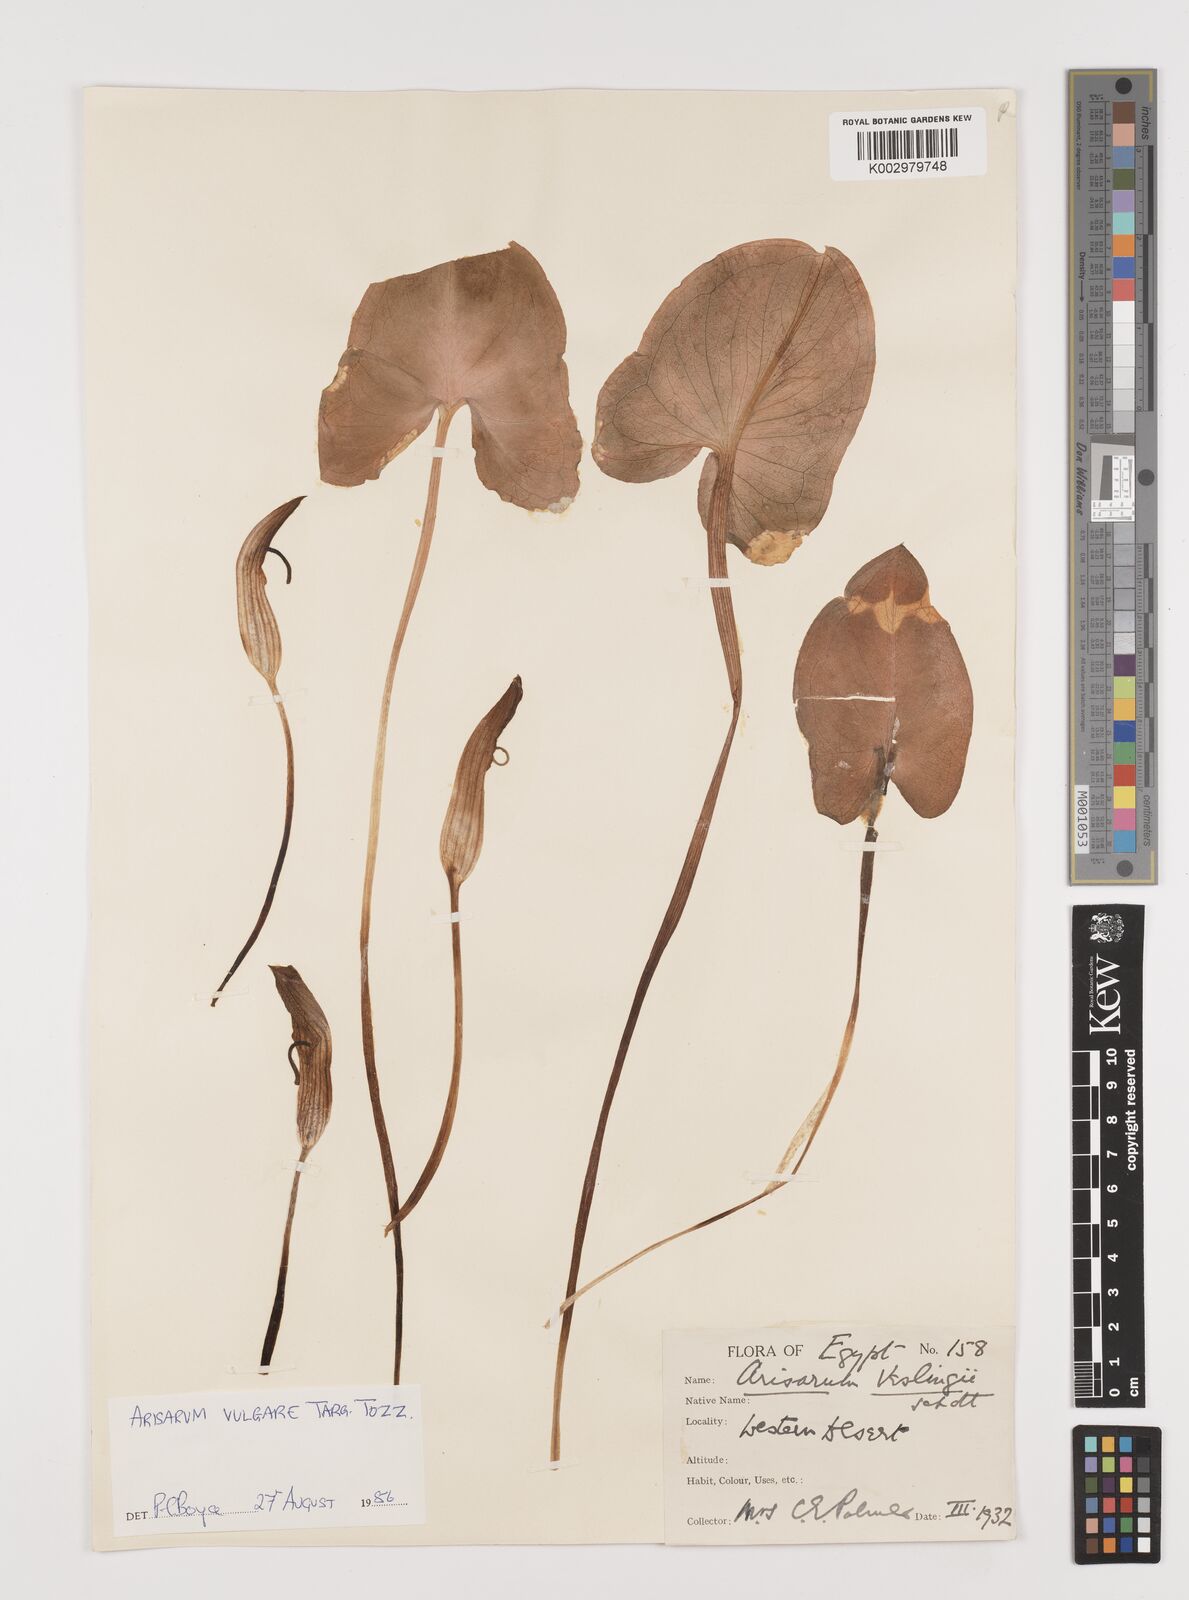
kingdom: Plantae
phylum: Tracheophyta
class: Liliopsida
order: Alismatales
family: Araceae
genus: Arisarum
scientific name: Arisarum vulgare
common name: Common arisarum
